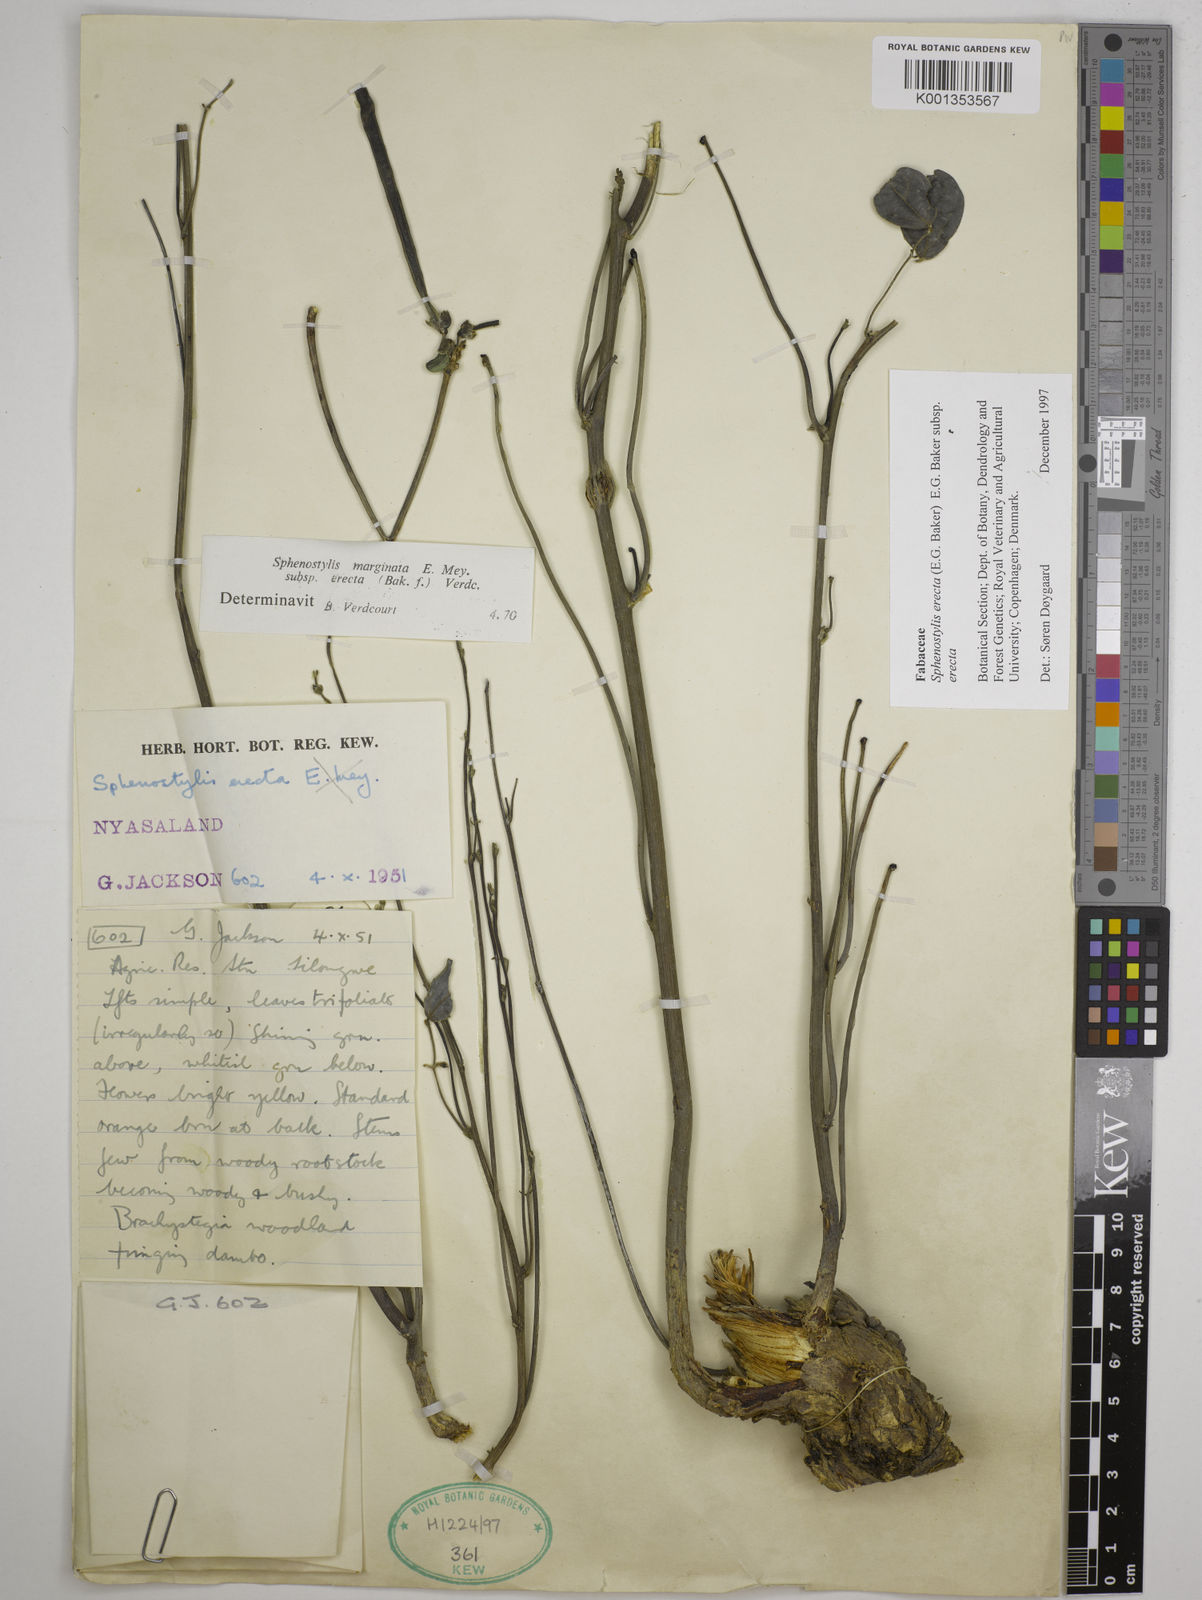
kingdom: Plantae
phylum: Tracheophyta
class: Magnoliopsida
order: Fabales
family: Fabaceae
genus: Sphenostylis
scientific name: Sphenostylis erecta
